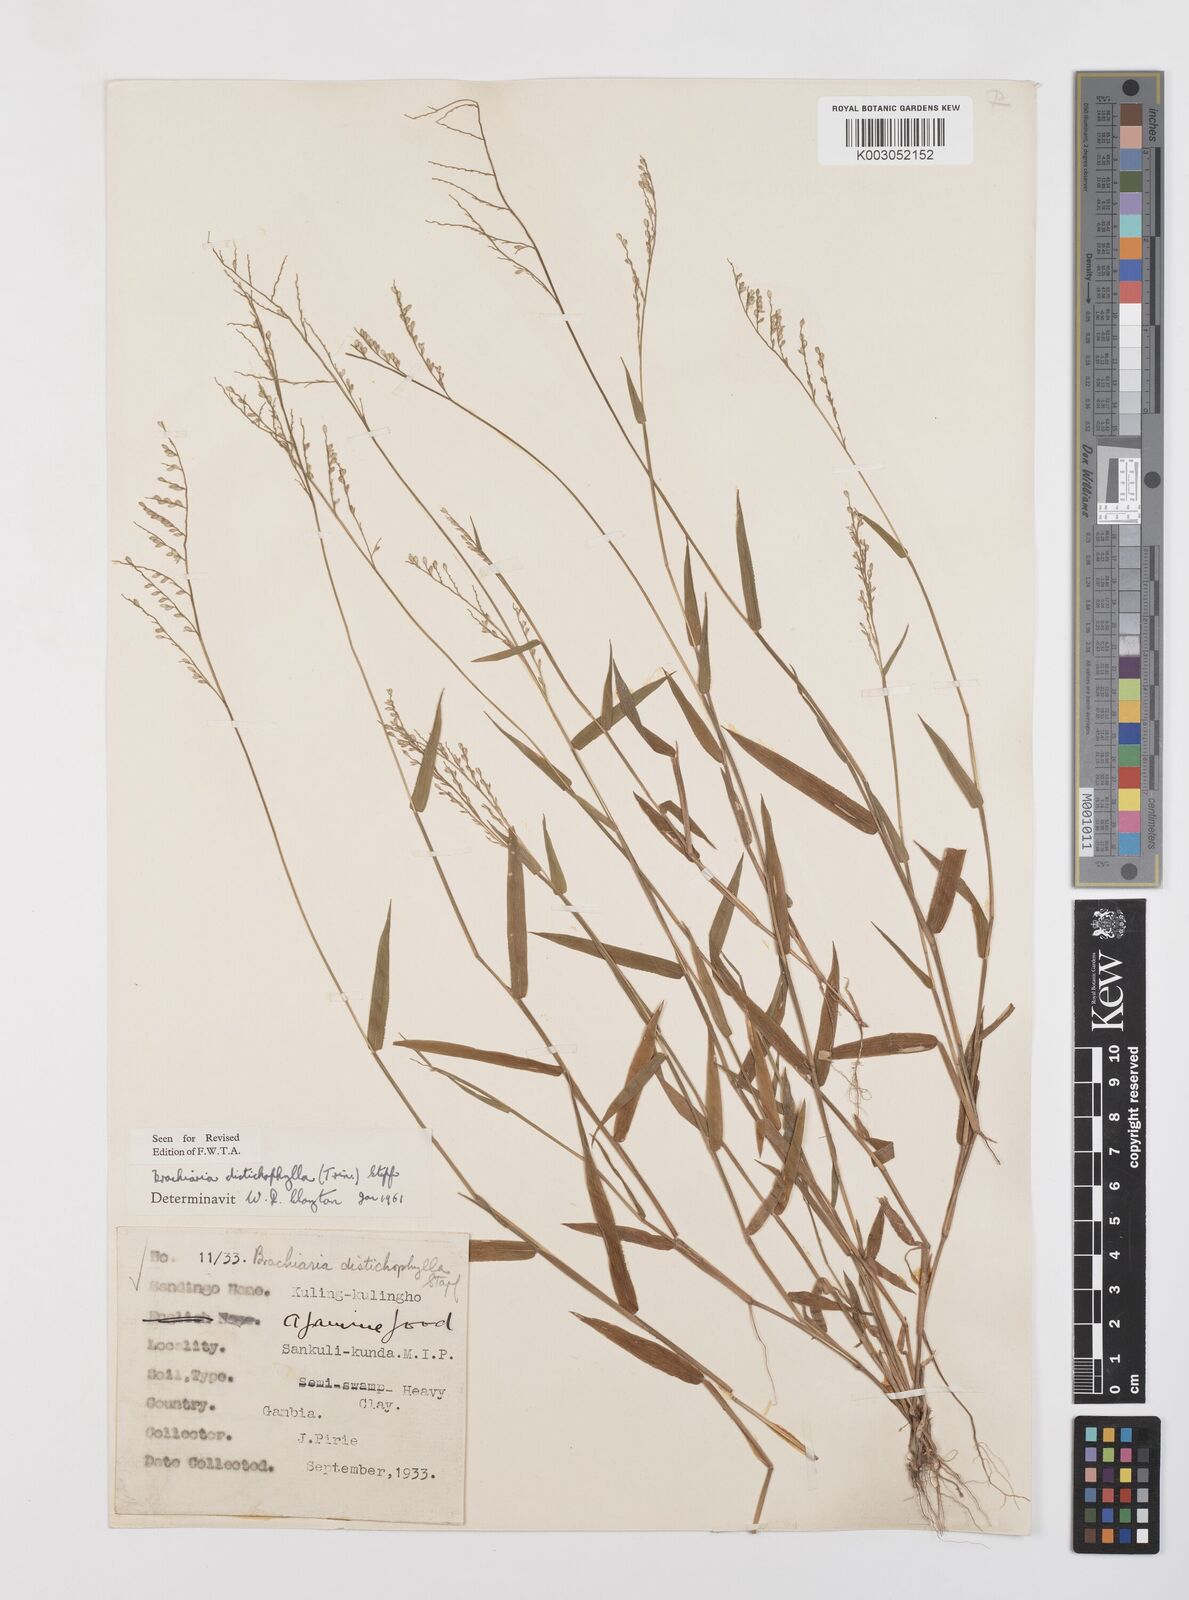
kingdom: Plantae
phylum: Tracheophyta
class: Liliopsida
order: Poales
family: Poaceae
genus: Urochloa
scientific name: Urochloa villosa
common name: Hairy signalgrass
